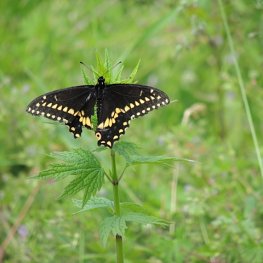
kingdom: Animalia
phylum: Arthropoda
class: Insecta
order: Lepidoptera
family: Papilionidae
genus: Papilio
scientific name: Papilio polyxenes
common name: Black Swallowtail
